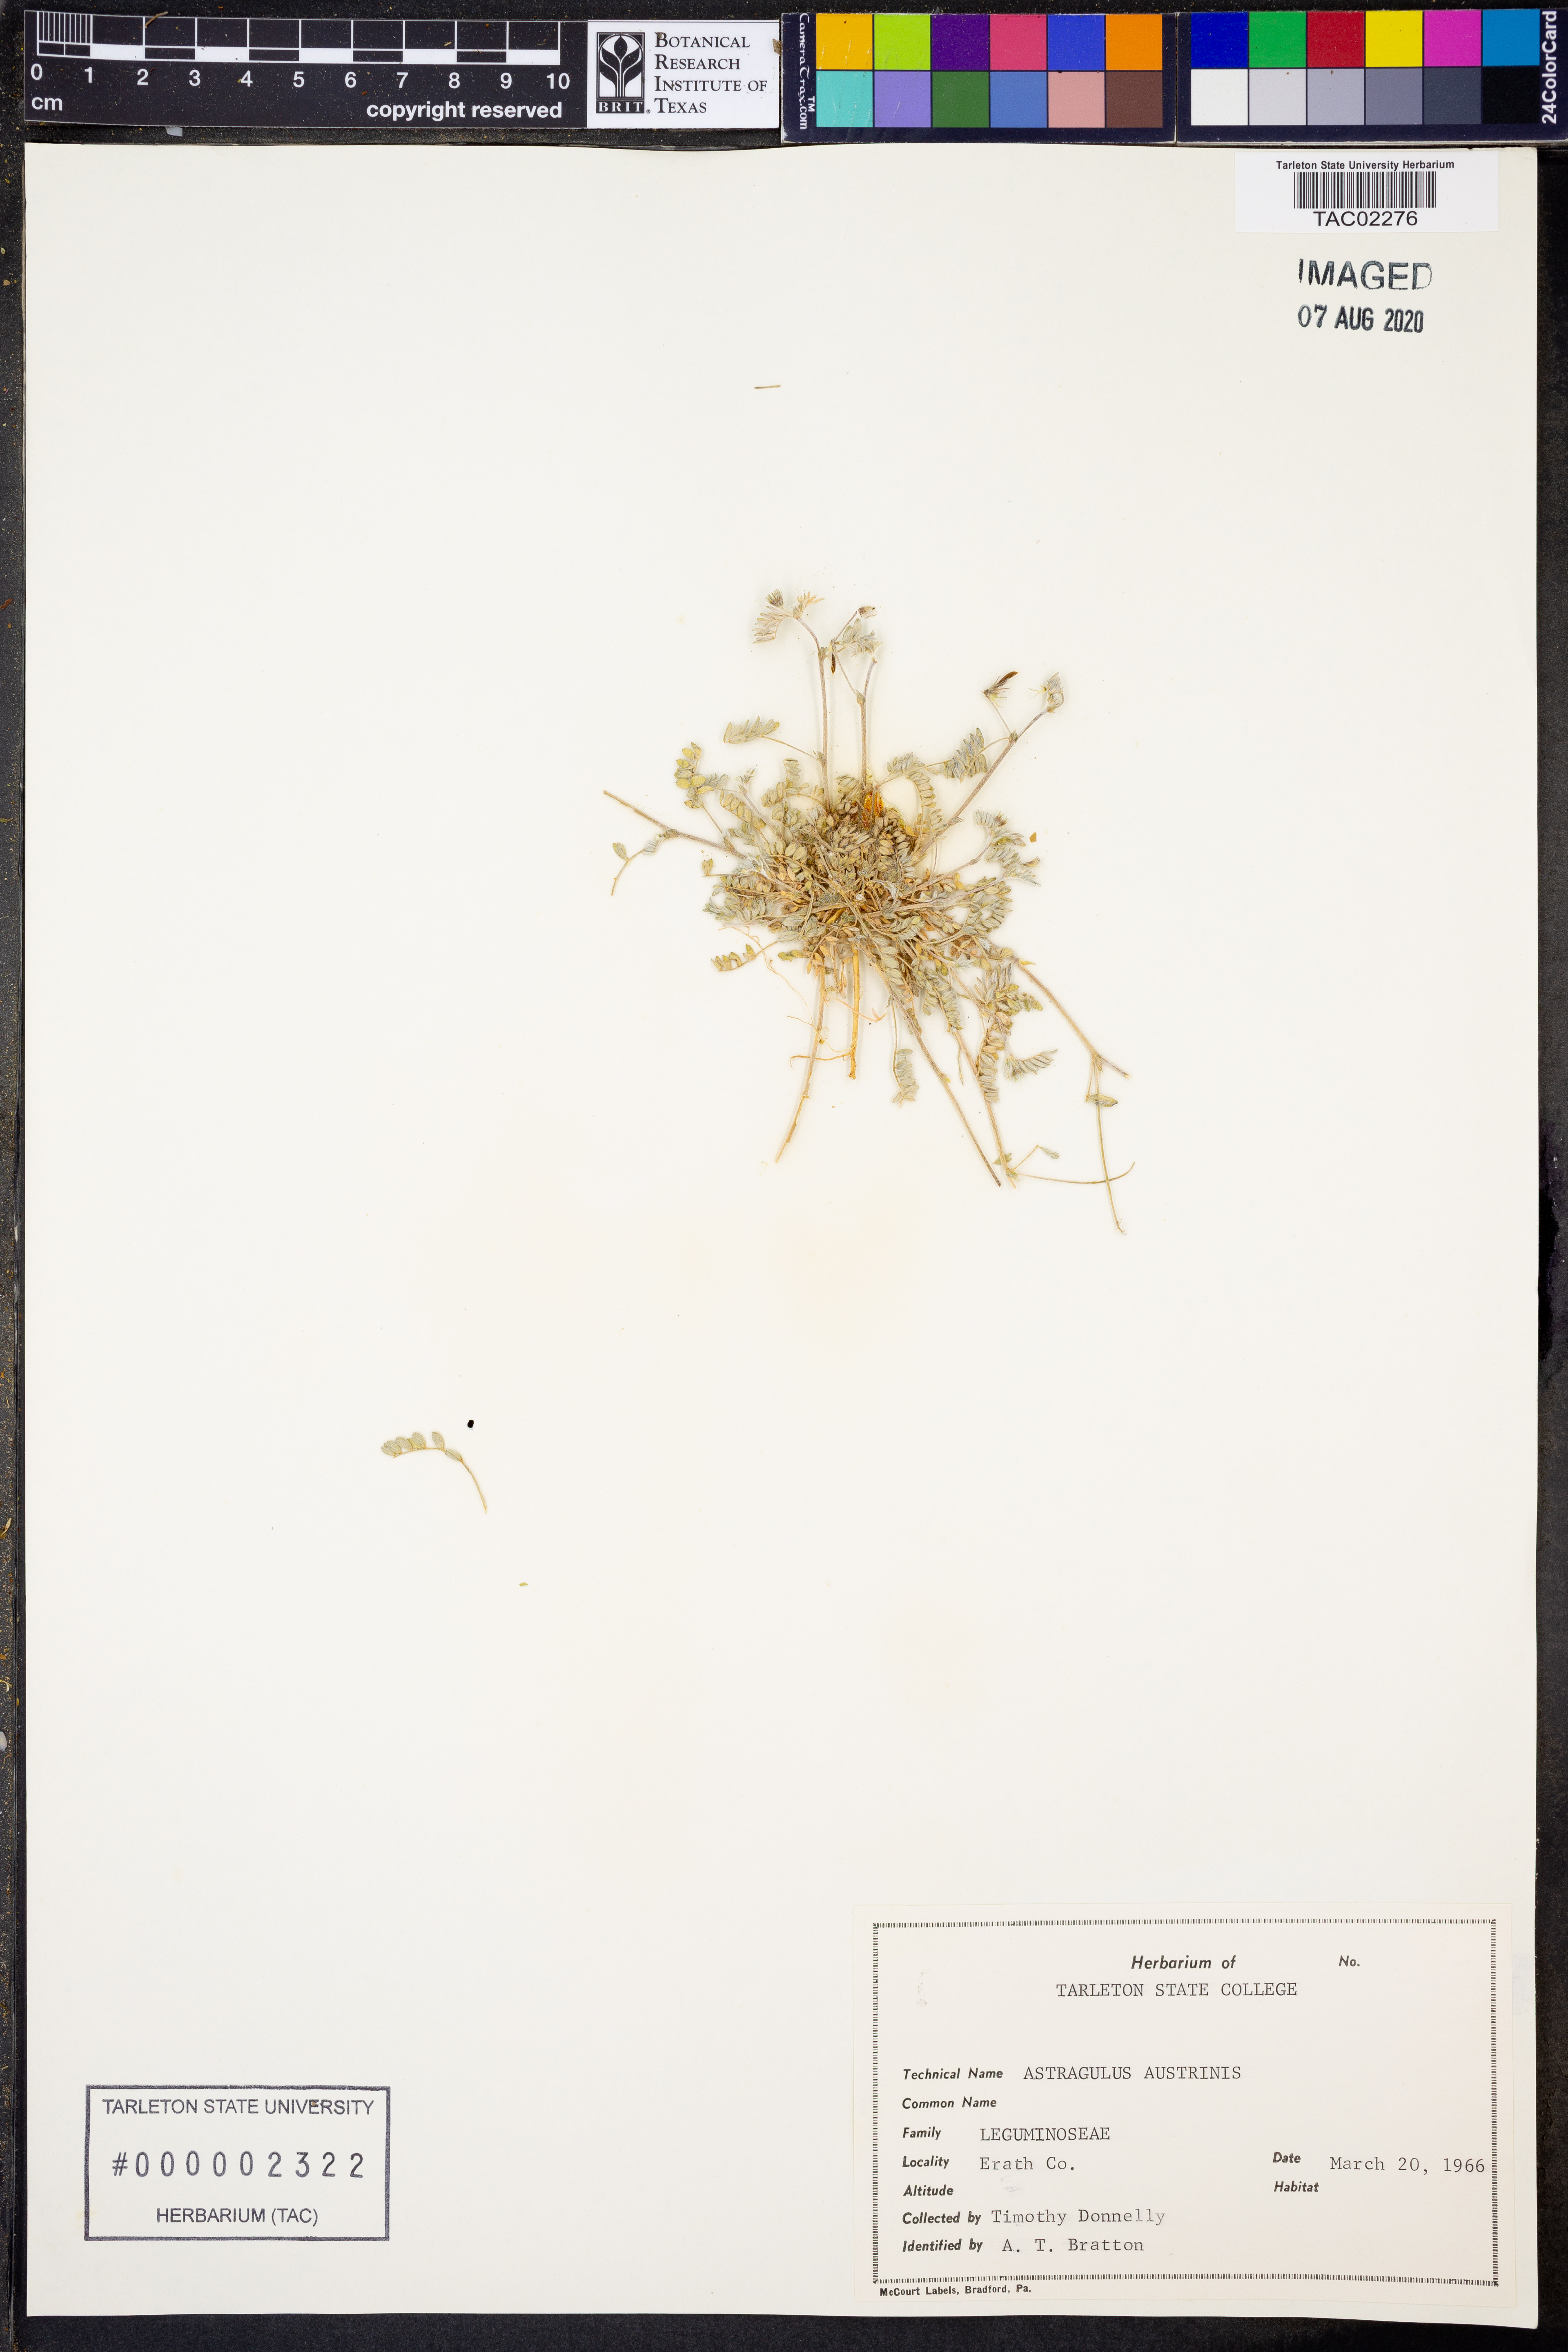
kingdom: Plantae
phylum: Tracheophyta
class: Magnoliopsida
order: Fabales
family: Fabaceae
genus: Astragalus
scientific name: Astragalus nuttallianus
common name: Smallflowered milkvetch
